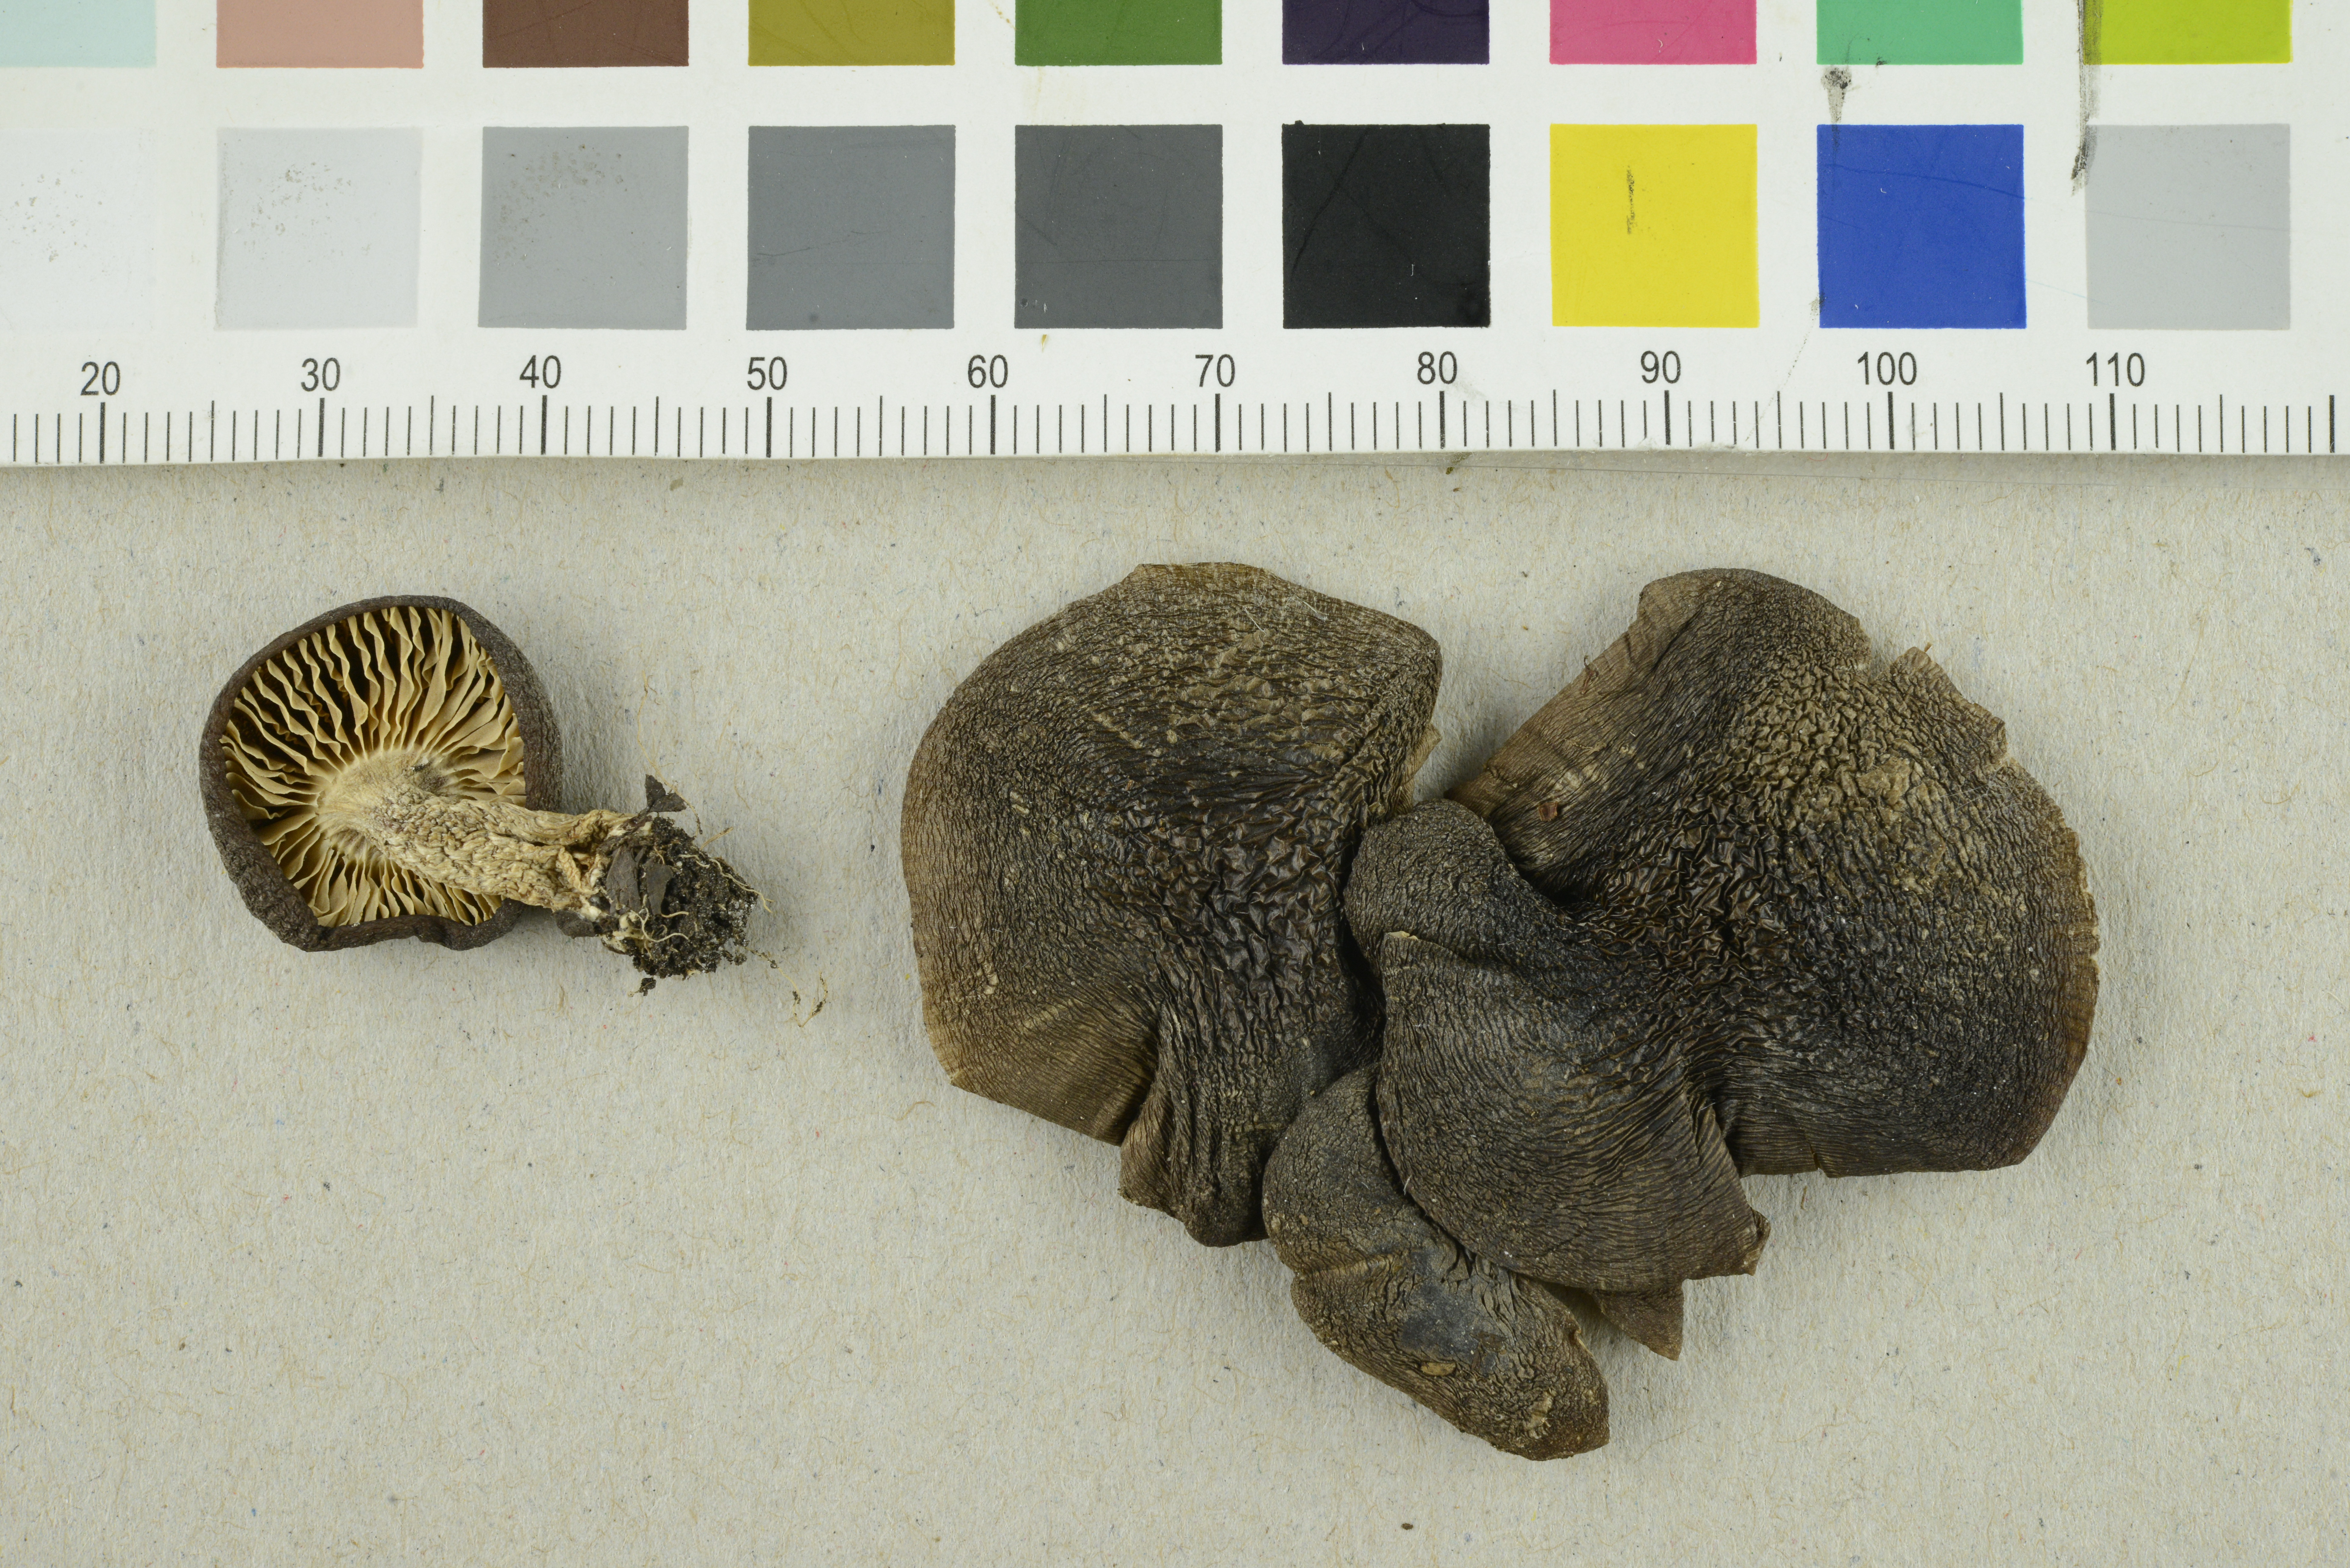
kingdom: Fungi
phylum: Basidiomycota
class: Agaricomycetes
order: Agaricales
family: Entolomataceae
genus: Entoloma
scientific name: Entoloma majaloides
